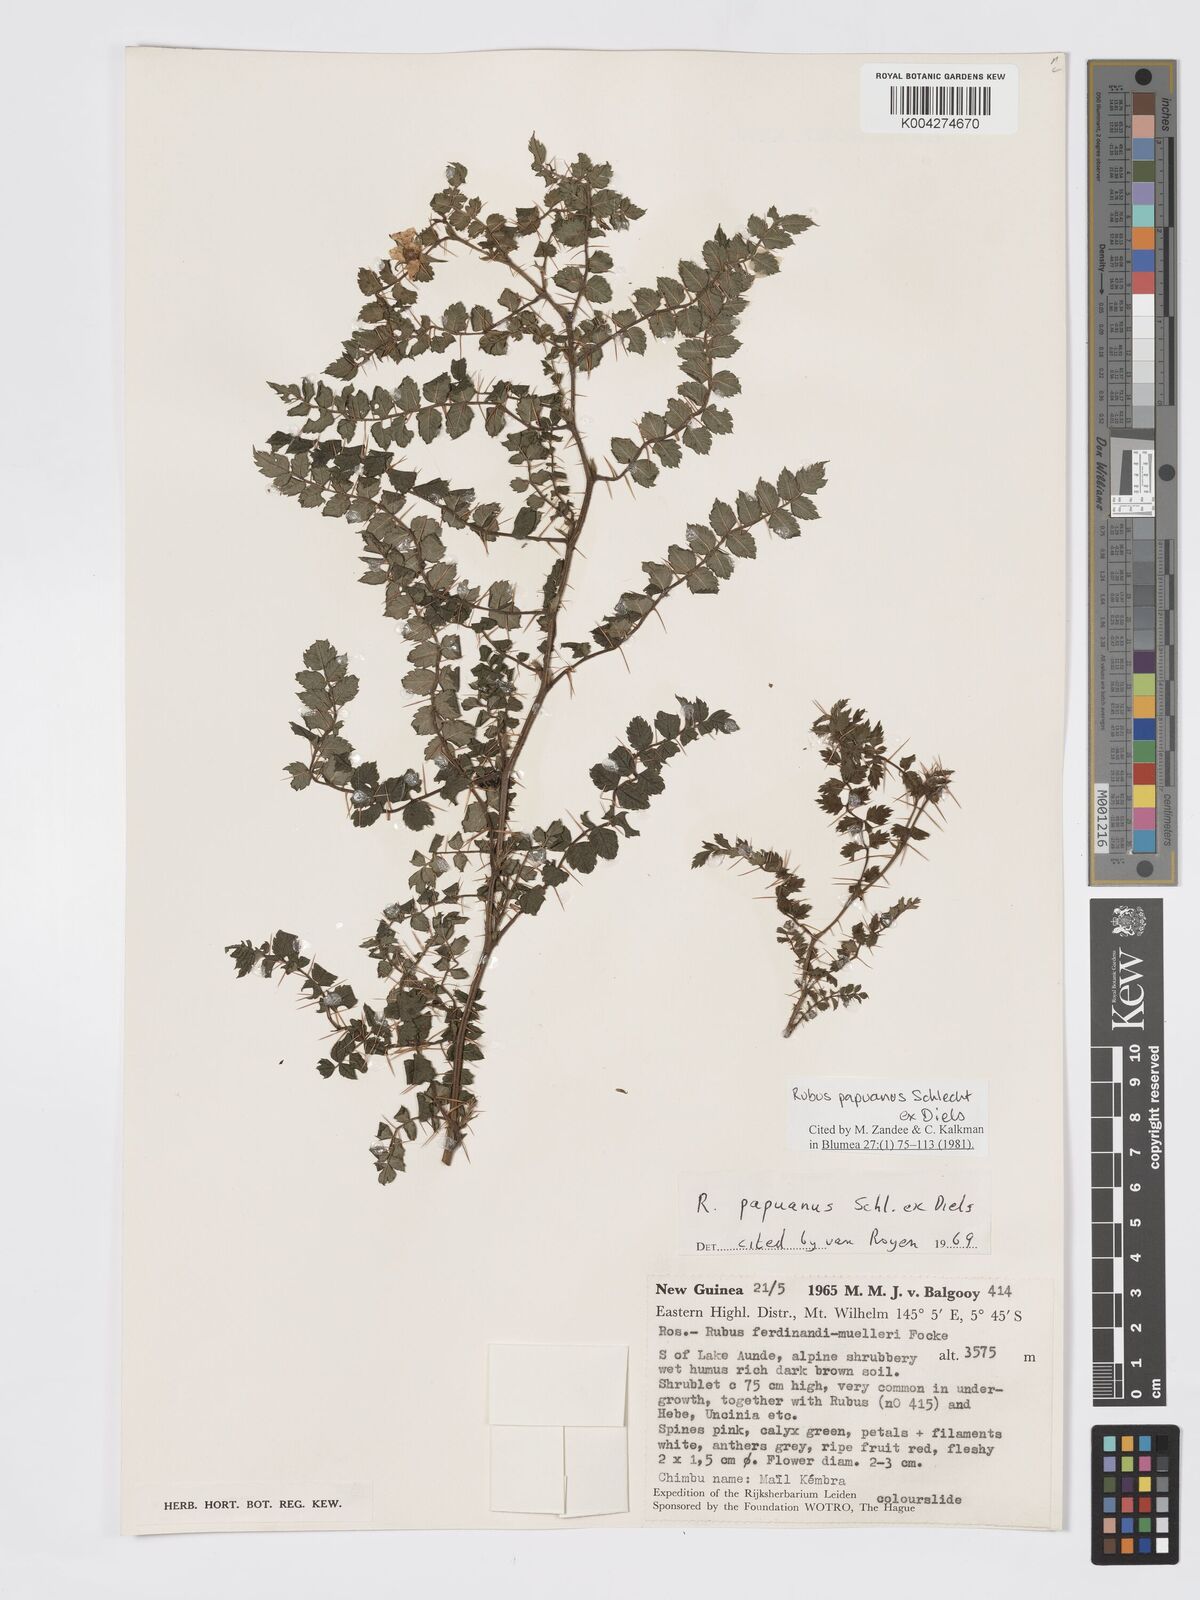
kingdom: Plantae
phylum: Tracheophyta
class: Magnoliopsida
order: Rosales
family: Rosaceae
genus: Rubus
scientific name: Rubus papuanus
